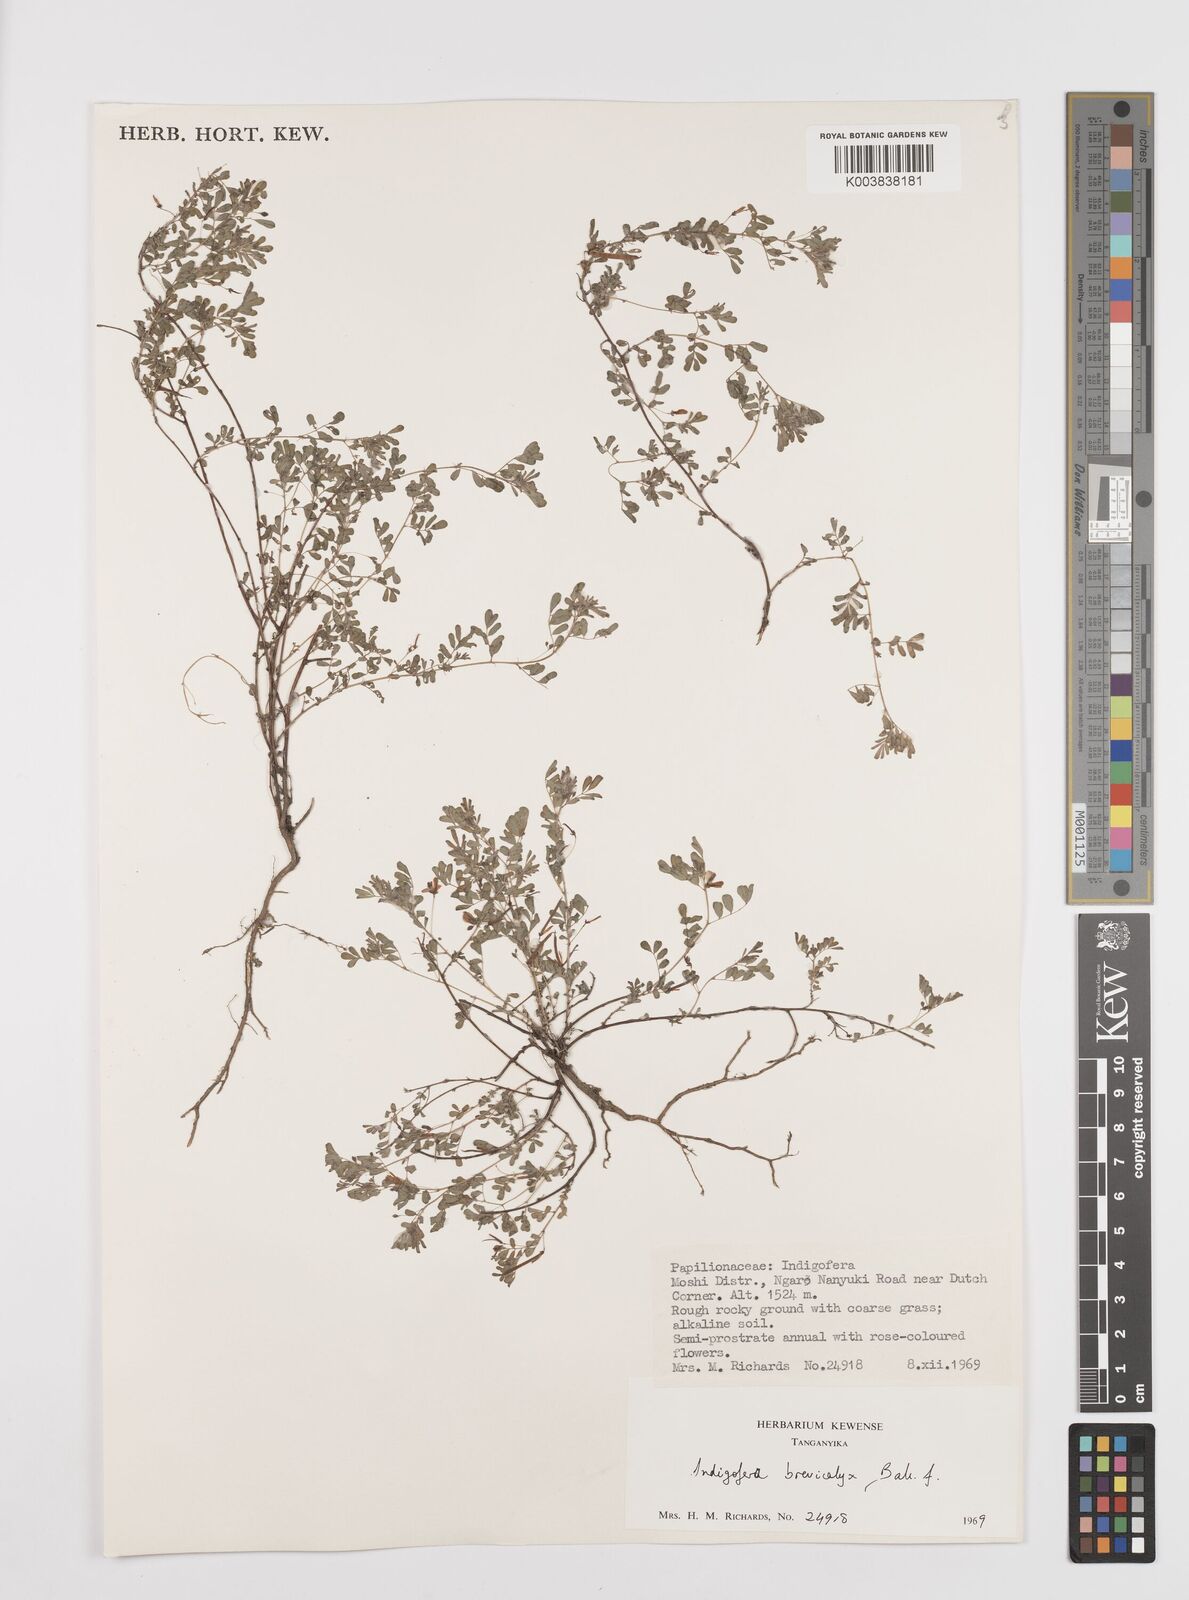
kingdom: Plantae
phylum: Tracheophyta
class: Magnoliopsida
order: Fabales
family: Fabaceae
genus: Indigofera
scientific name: Indigofera brevicalyx
